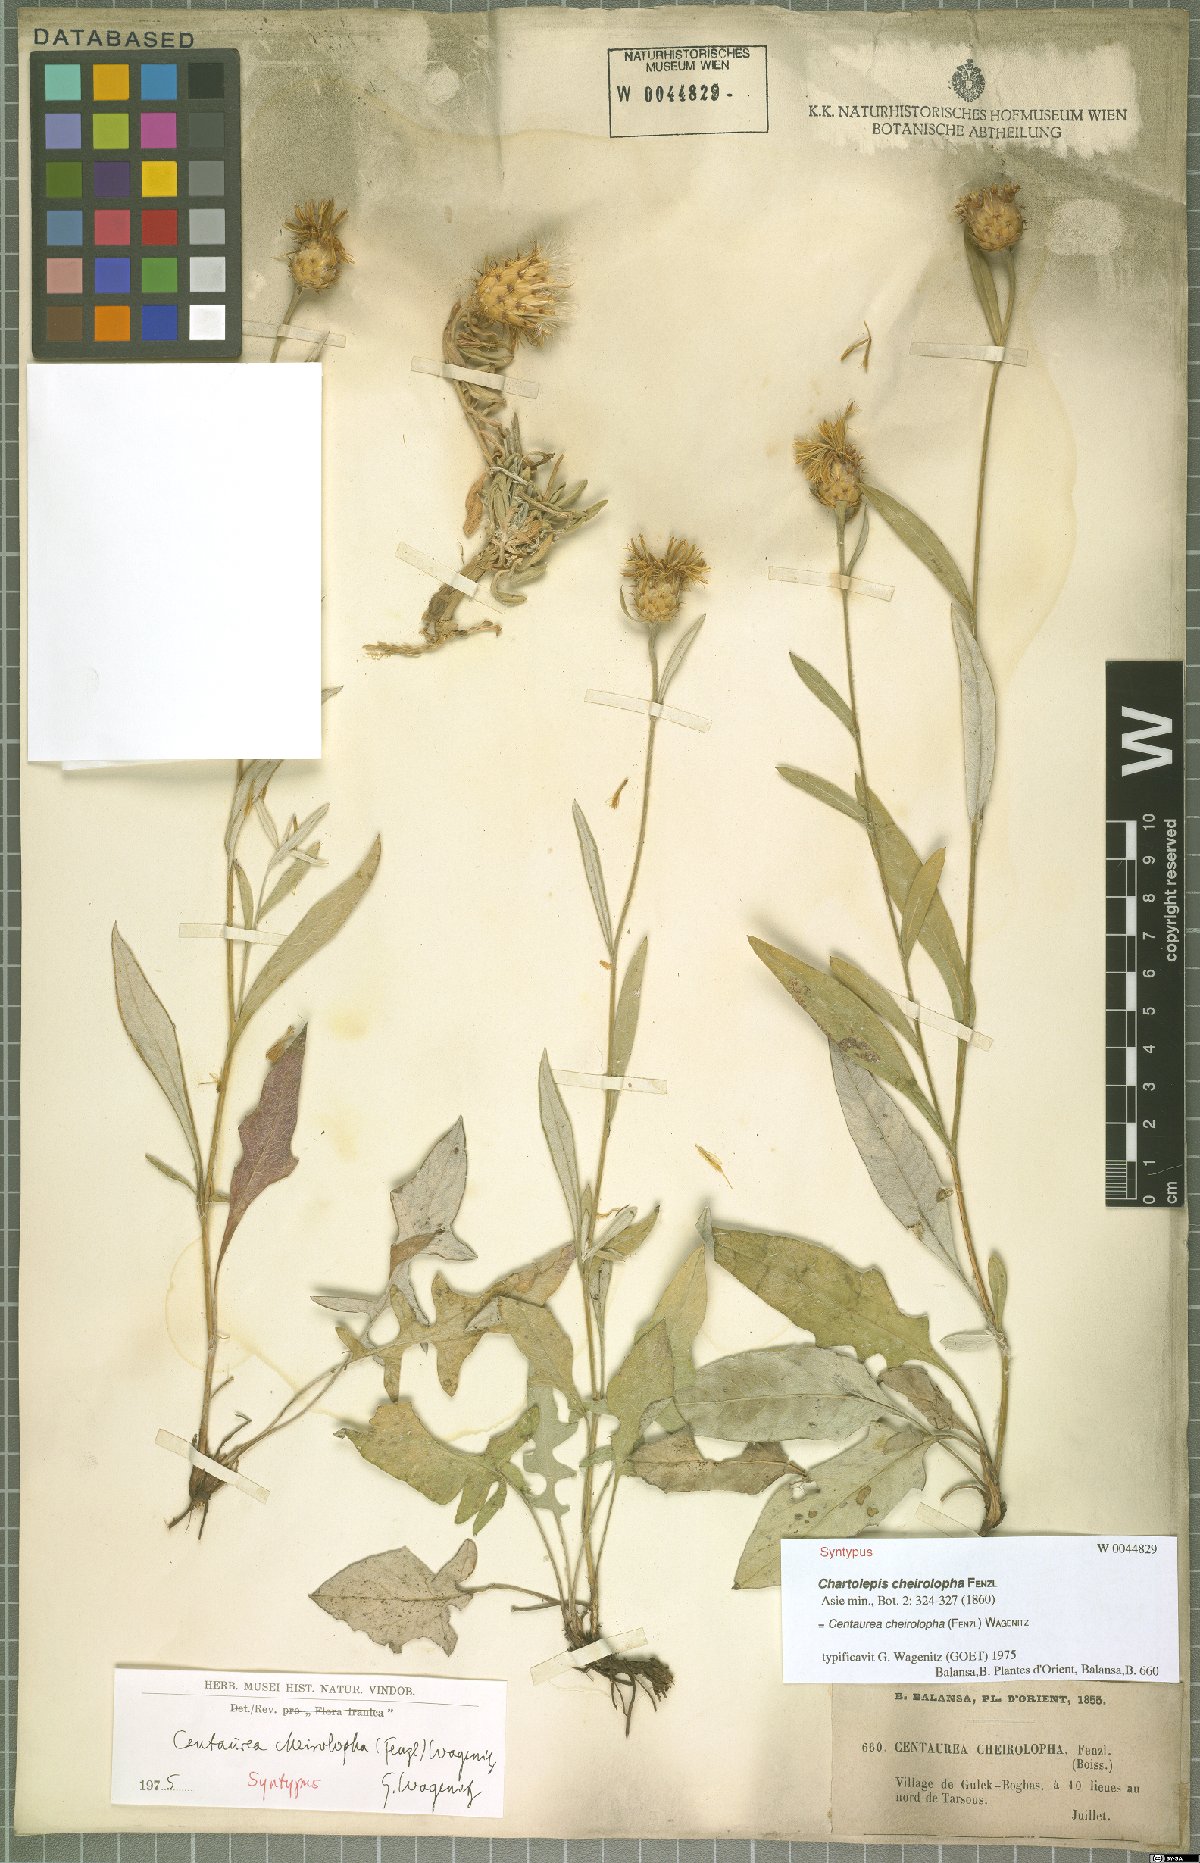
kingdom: Plantae
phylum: Tracheophyta
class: Magnoliopsida
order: Asterales
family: Asteraceae
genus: Centaurea
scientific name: Centaurea cheirolopha
